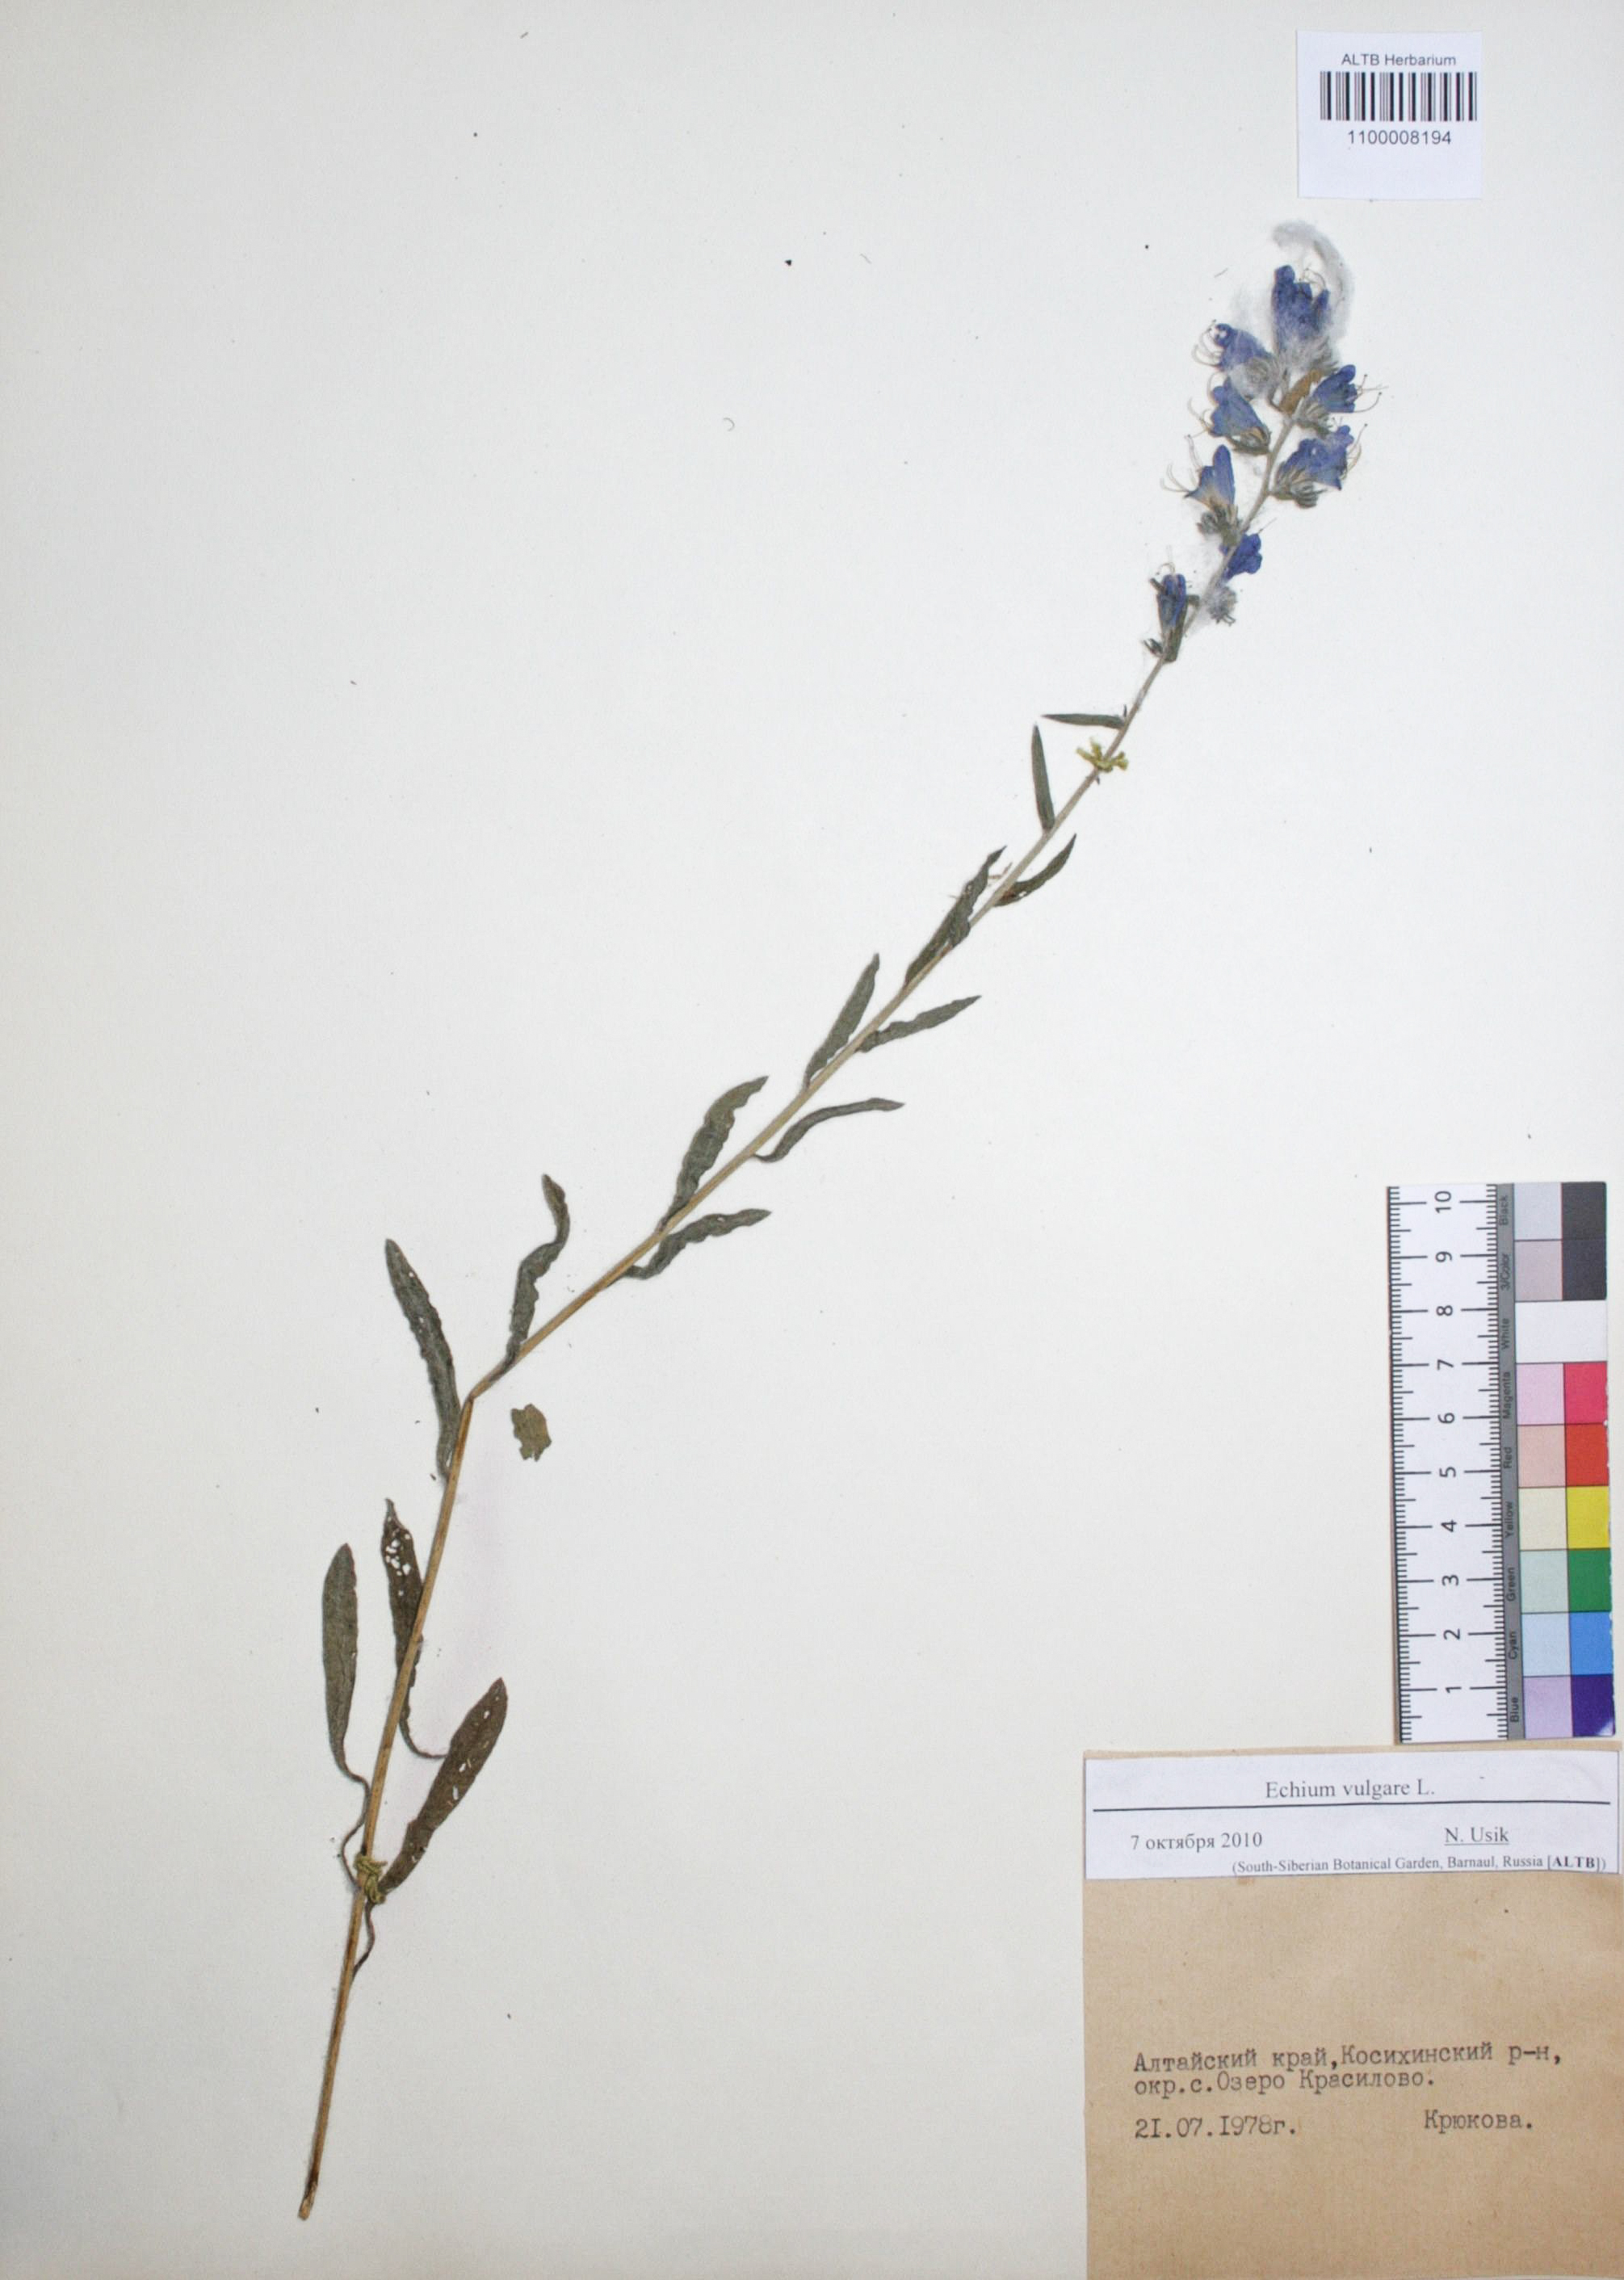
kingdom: Plantae
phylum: Tracheophyta
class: Magnoliopsida
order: Boraginales
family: Boraginaceae
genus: Echium
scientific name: Echium vulgare
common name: Common viper's bugloss
